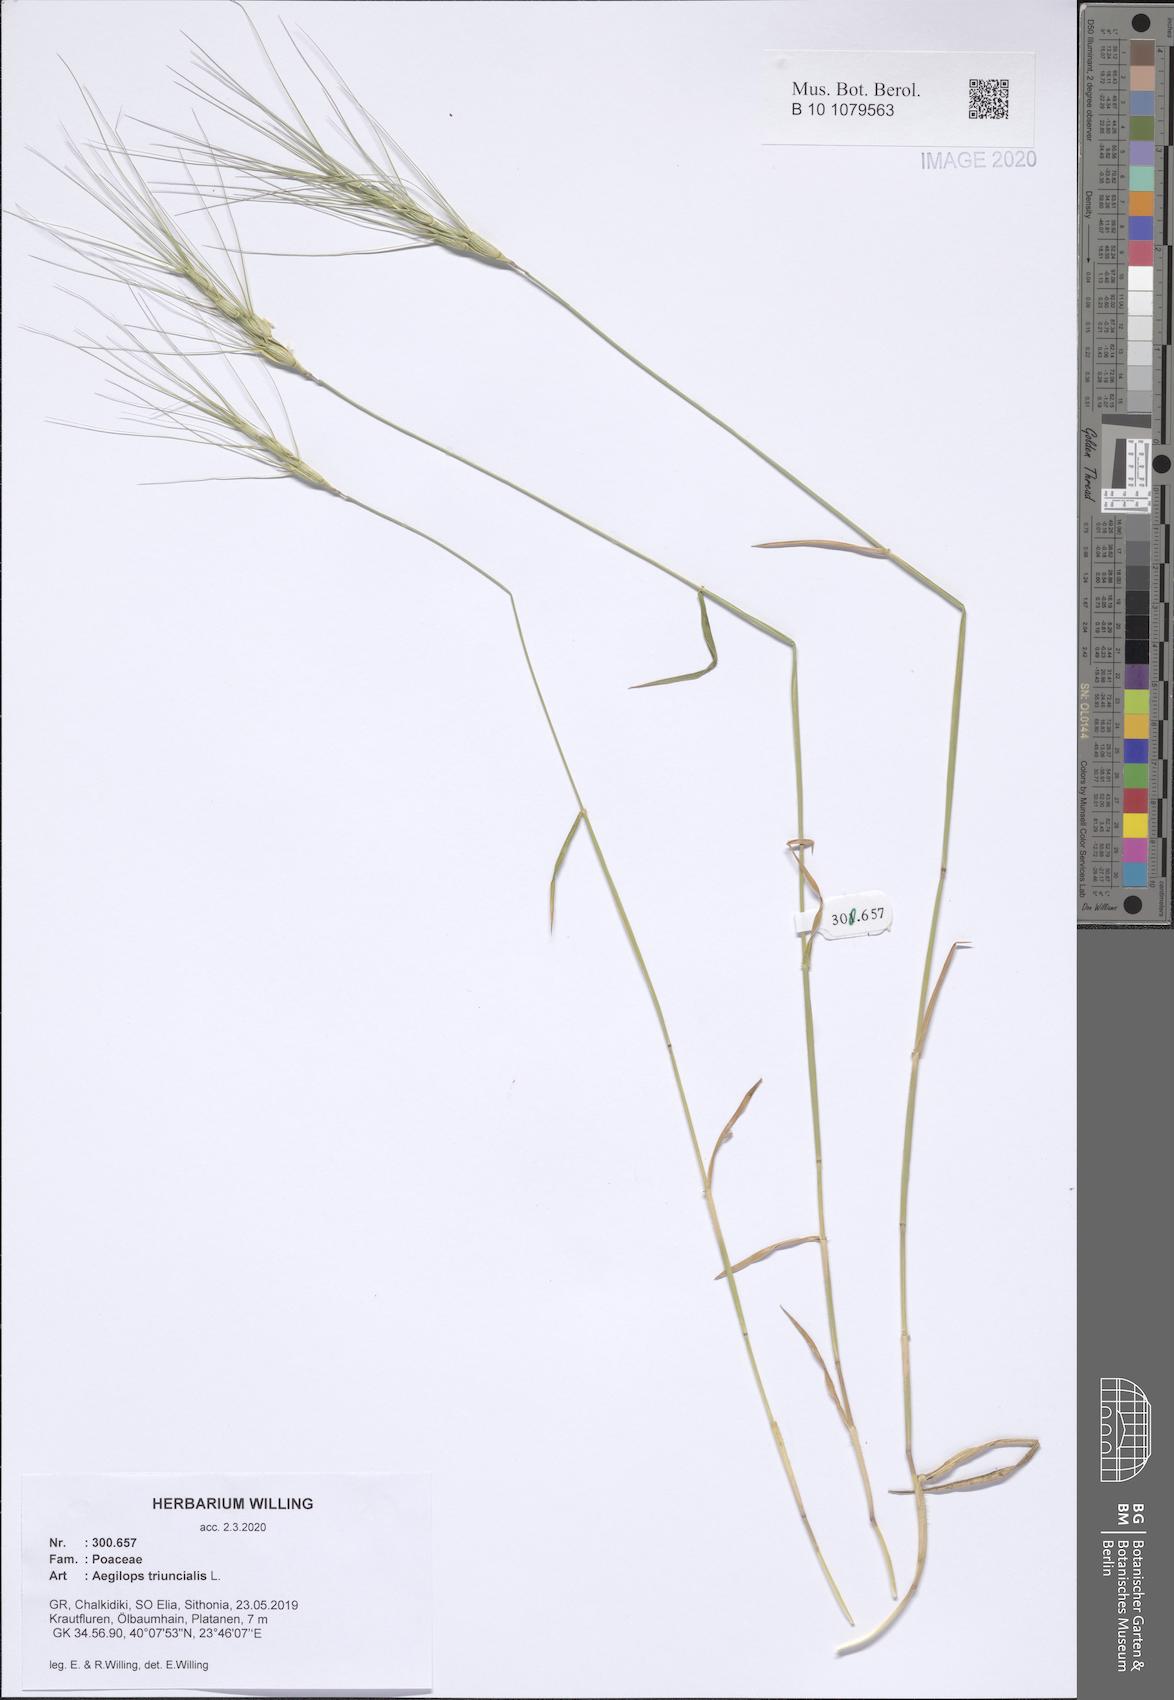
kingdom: Plantae
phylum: Tracheophyta
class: Liliopsida
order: Poales
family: Poaceae
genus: Aegilops
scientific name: Aegilops triuncialis
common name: Barb goat grass
